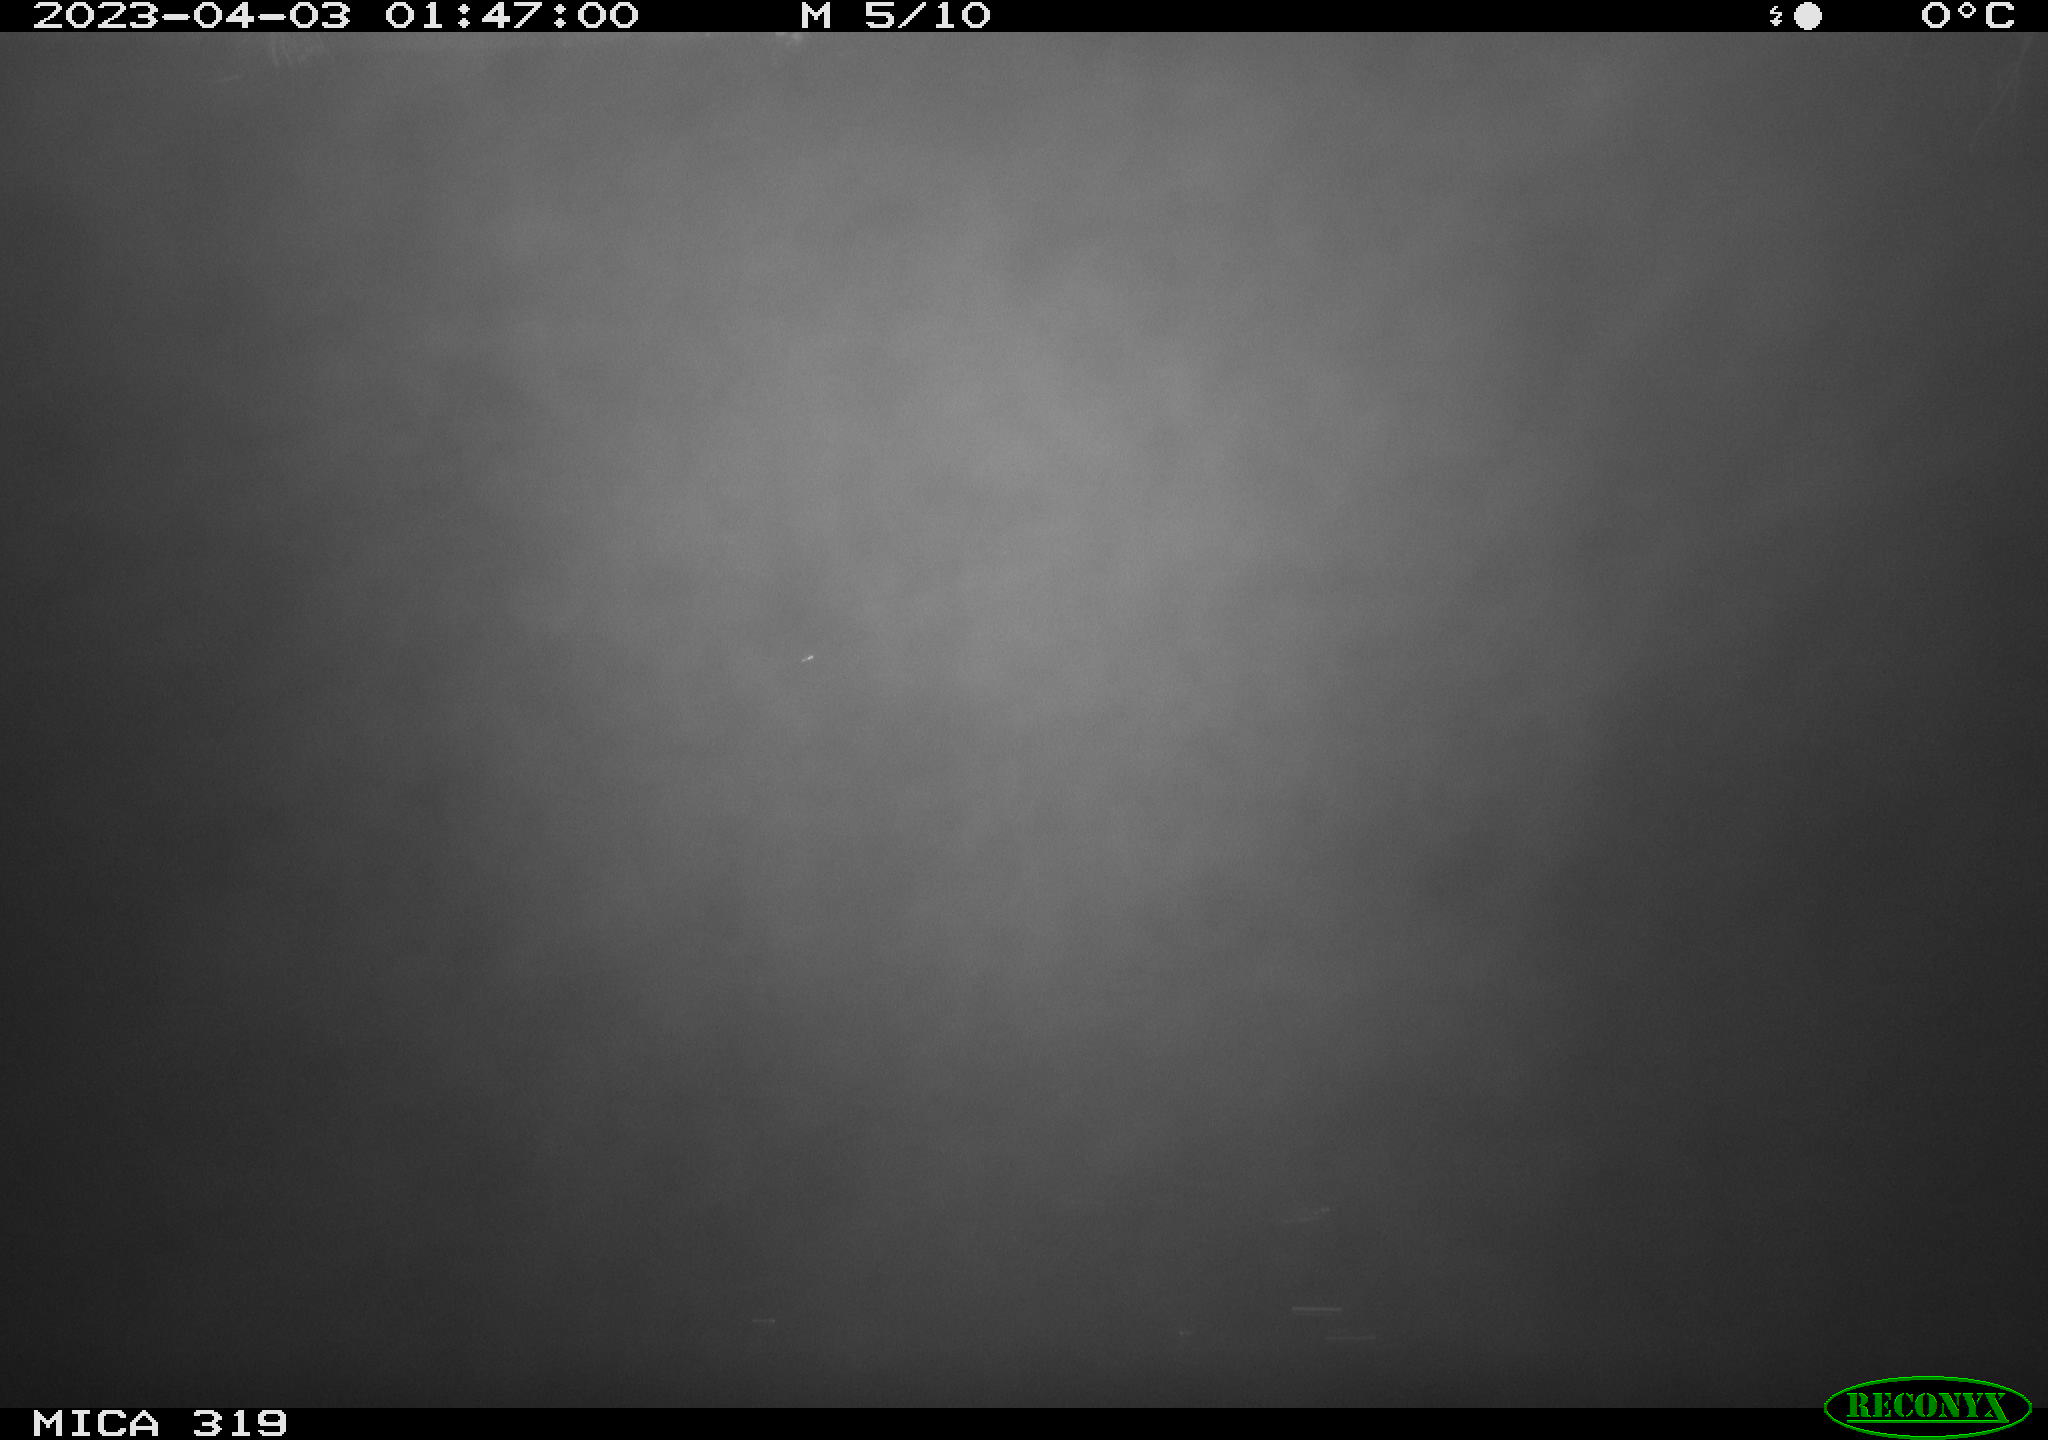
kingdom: Animalia
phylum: Chordata
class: Aves
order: Anseriformes
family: Anatidae
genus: Anas
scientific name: Anas
